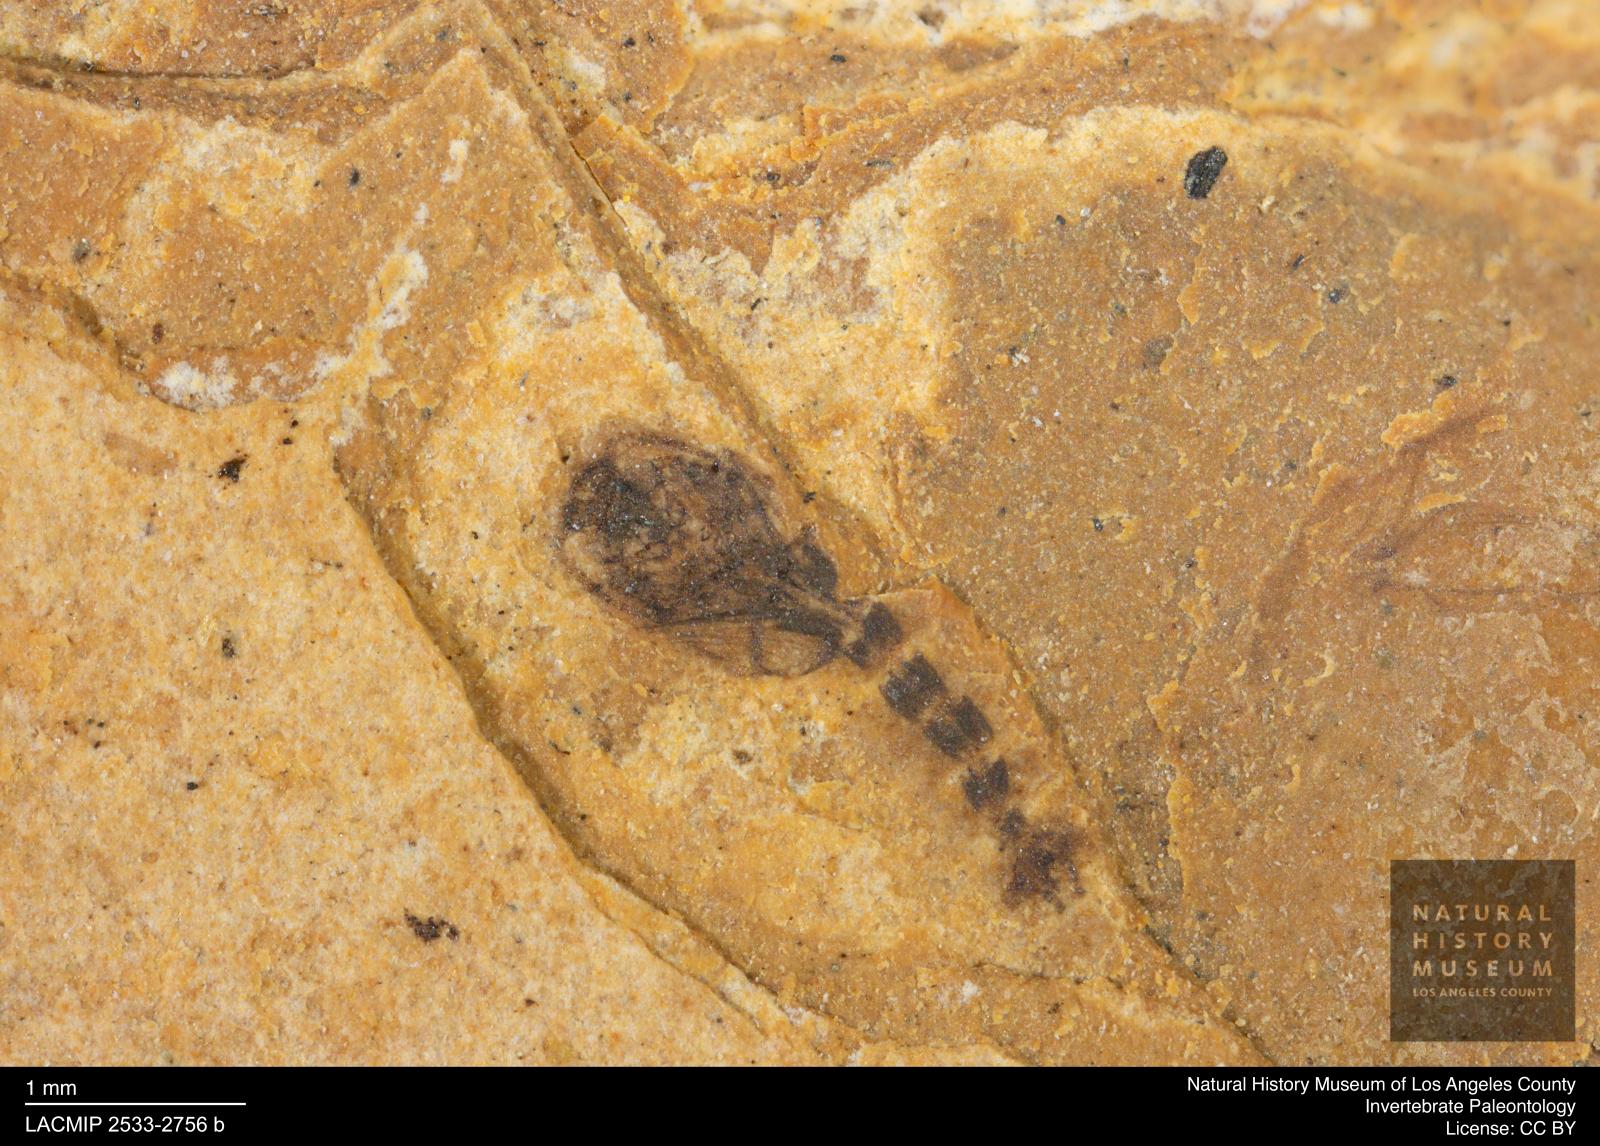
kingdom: Animalia
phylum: Arthropoda
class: Insecta
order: Diptera
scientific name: Diptera
